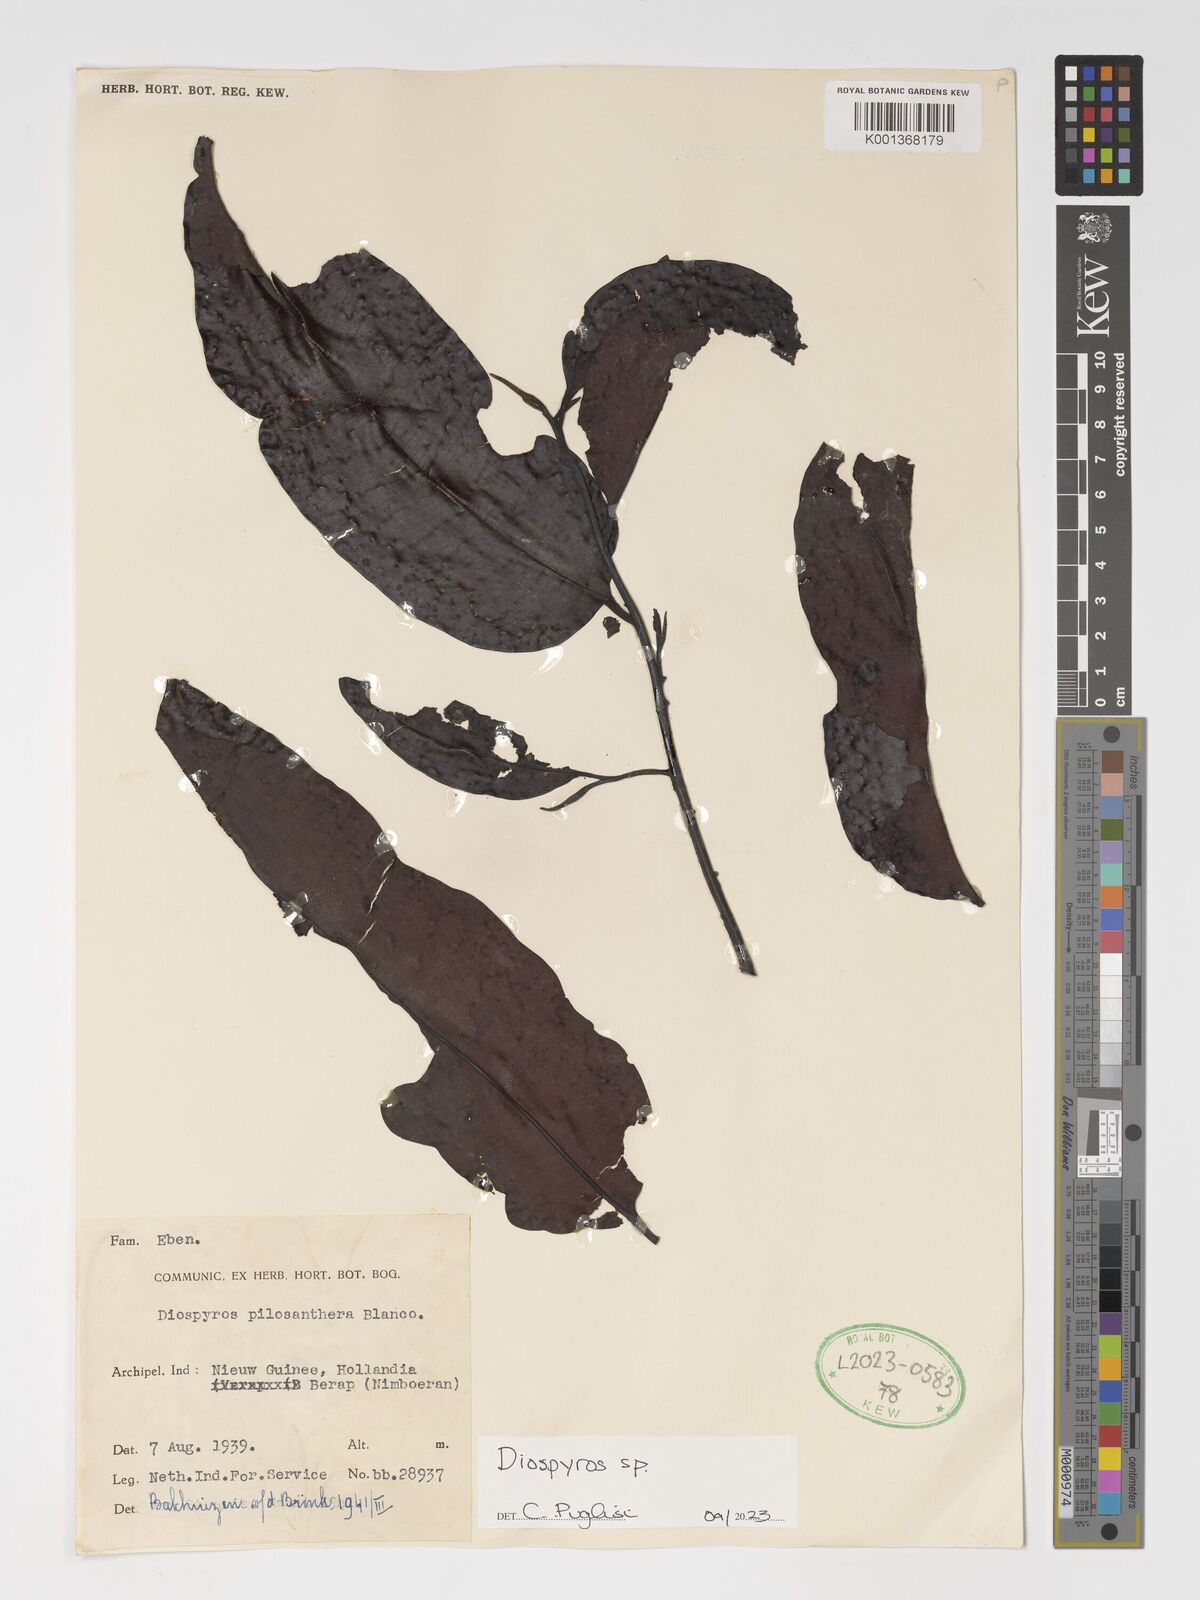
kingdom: Plantae
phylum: Tracheophyta
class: Magnoliopsida
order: Ericales
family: Ebenaceae
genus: Diospyros
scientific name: Diospyros
